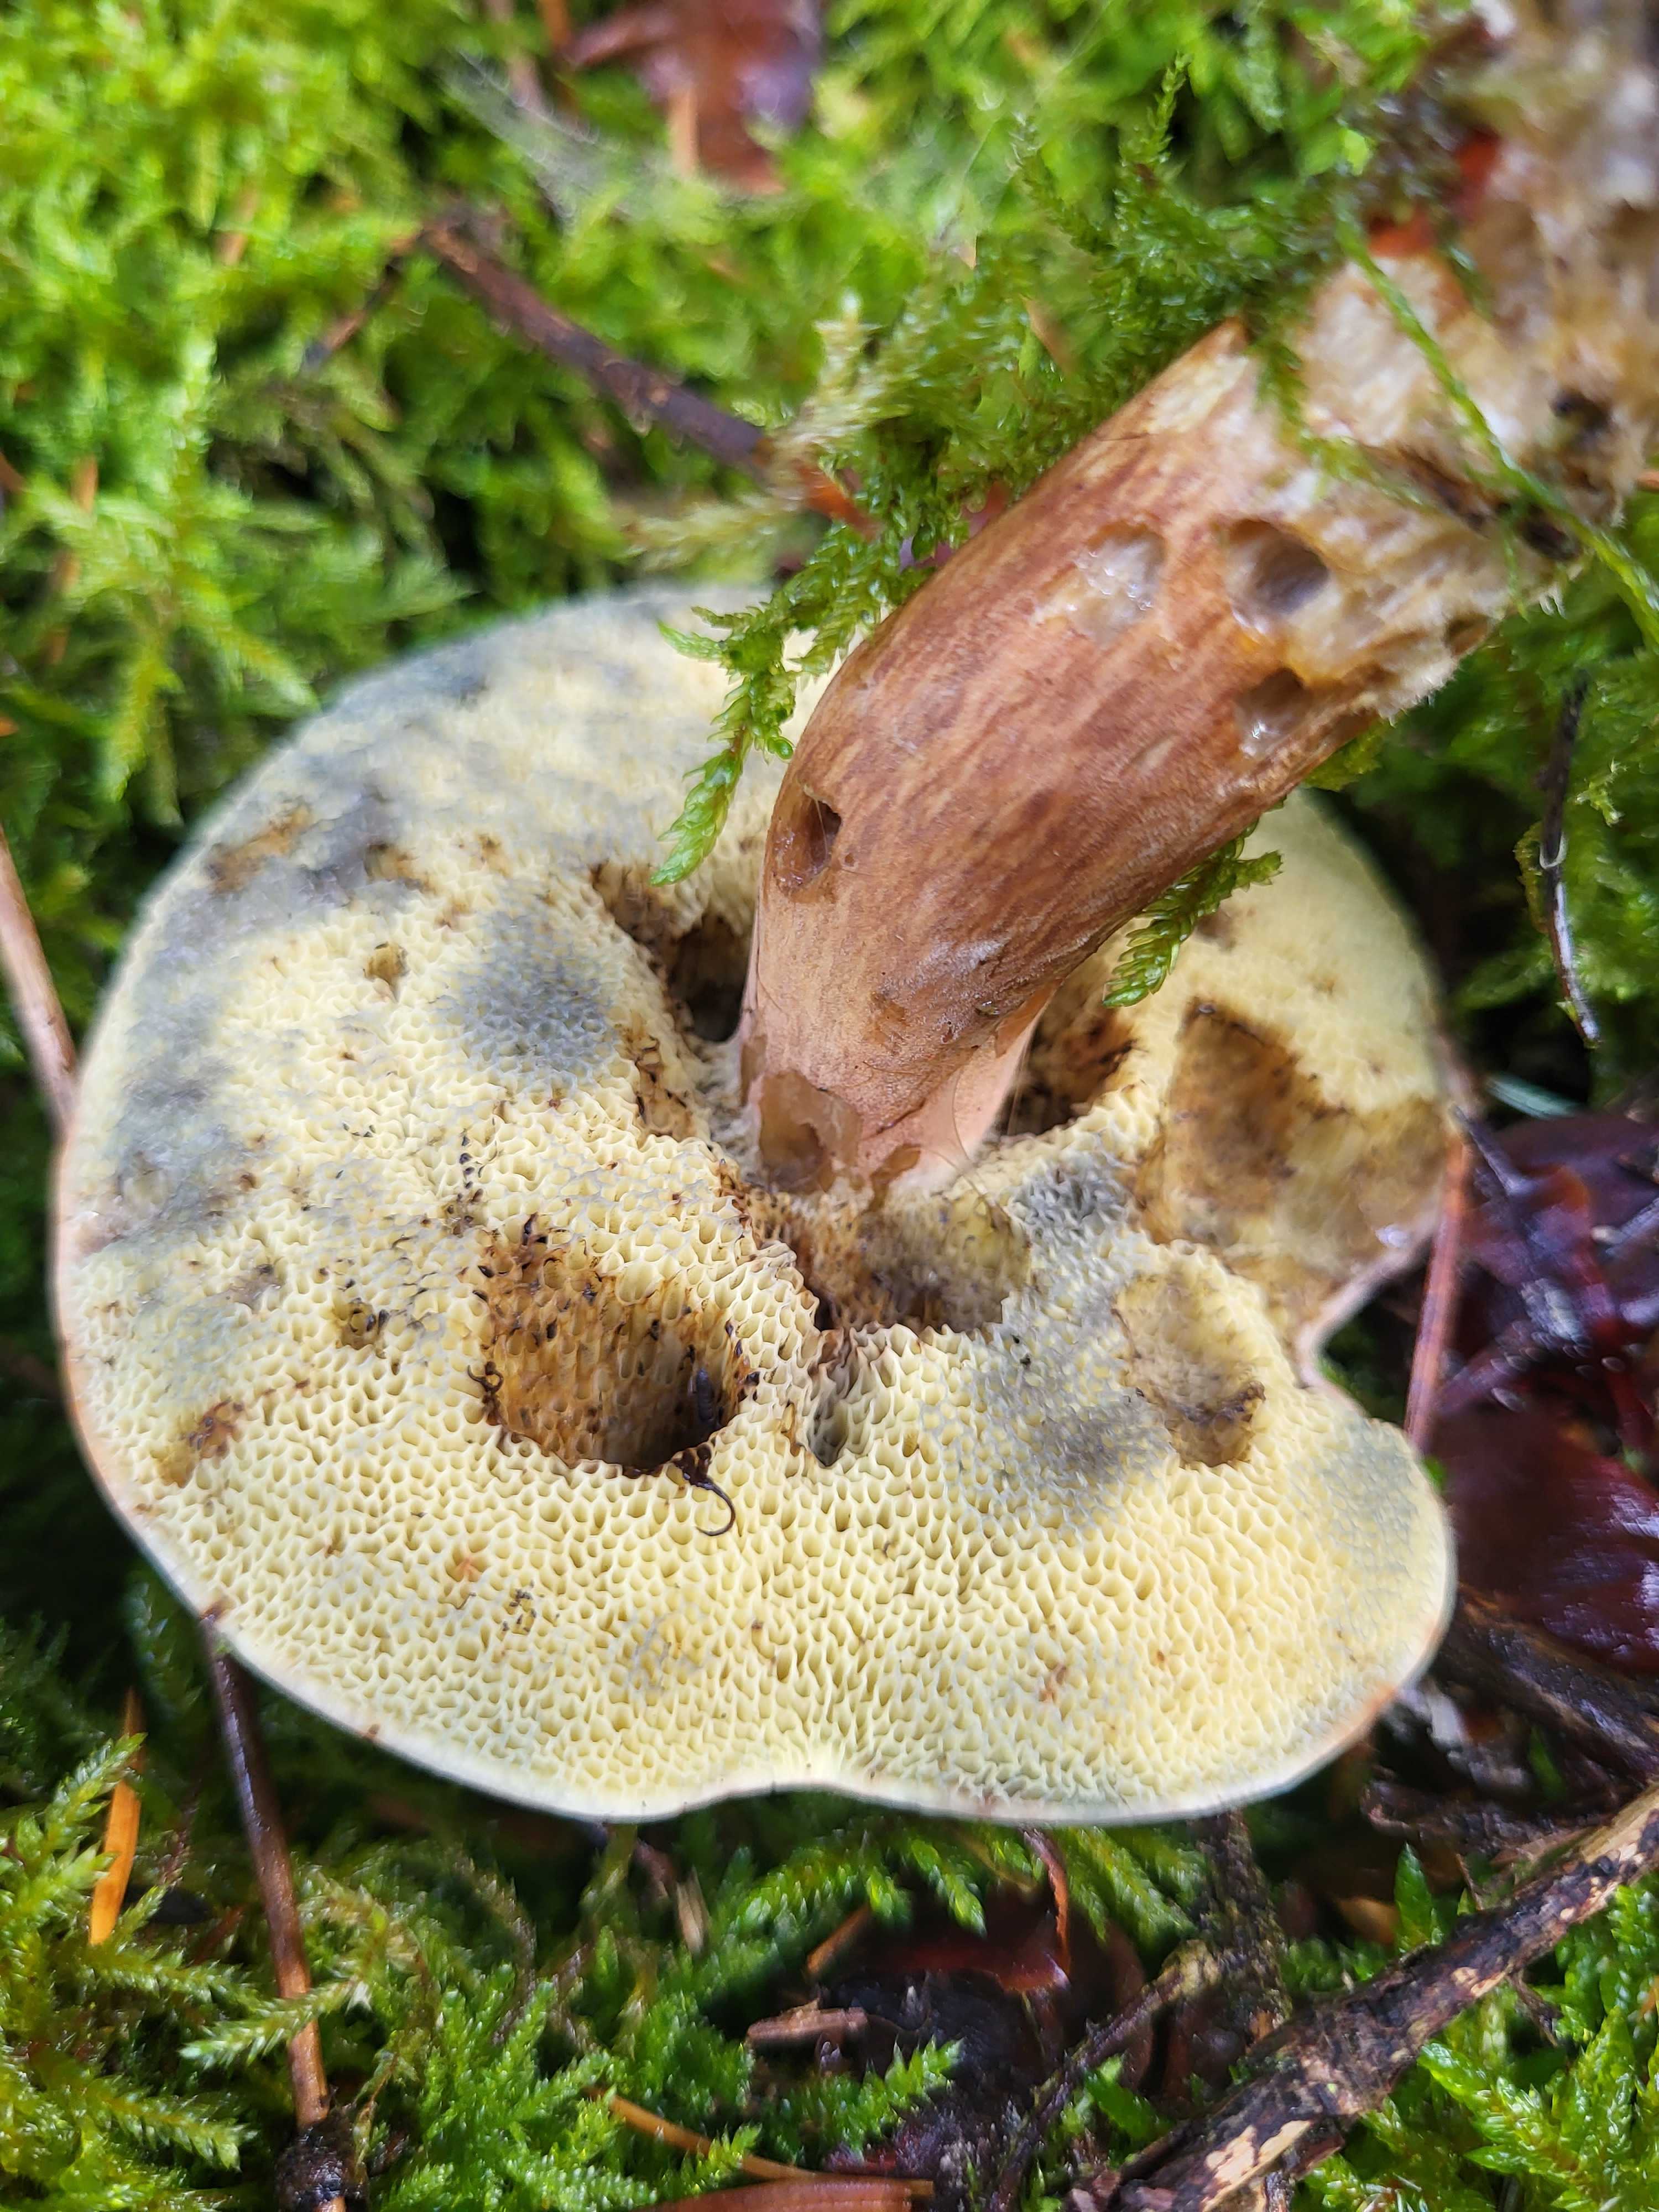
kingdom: Fungi
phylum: Basidiomycota
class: Agaricomycetes
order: Boletales
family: Boletaceae
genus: Imleria
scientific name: Imleria badia
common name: brunstokket rørhat
